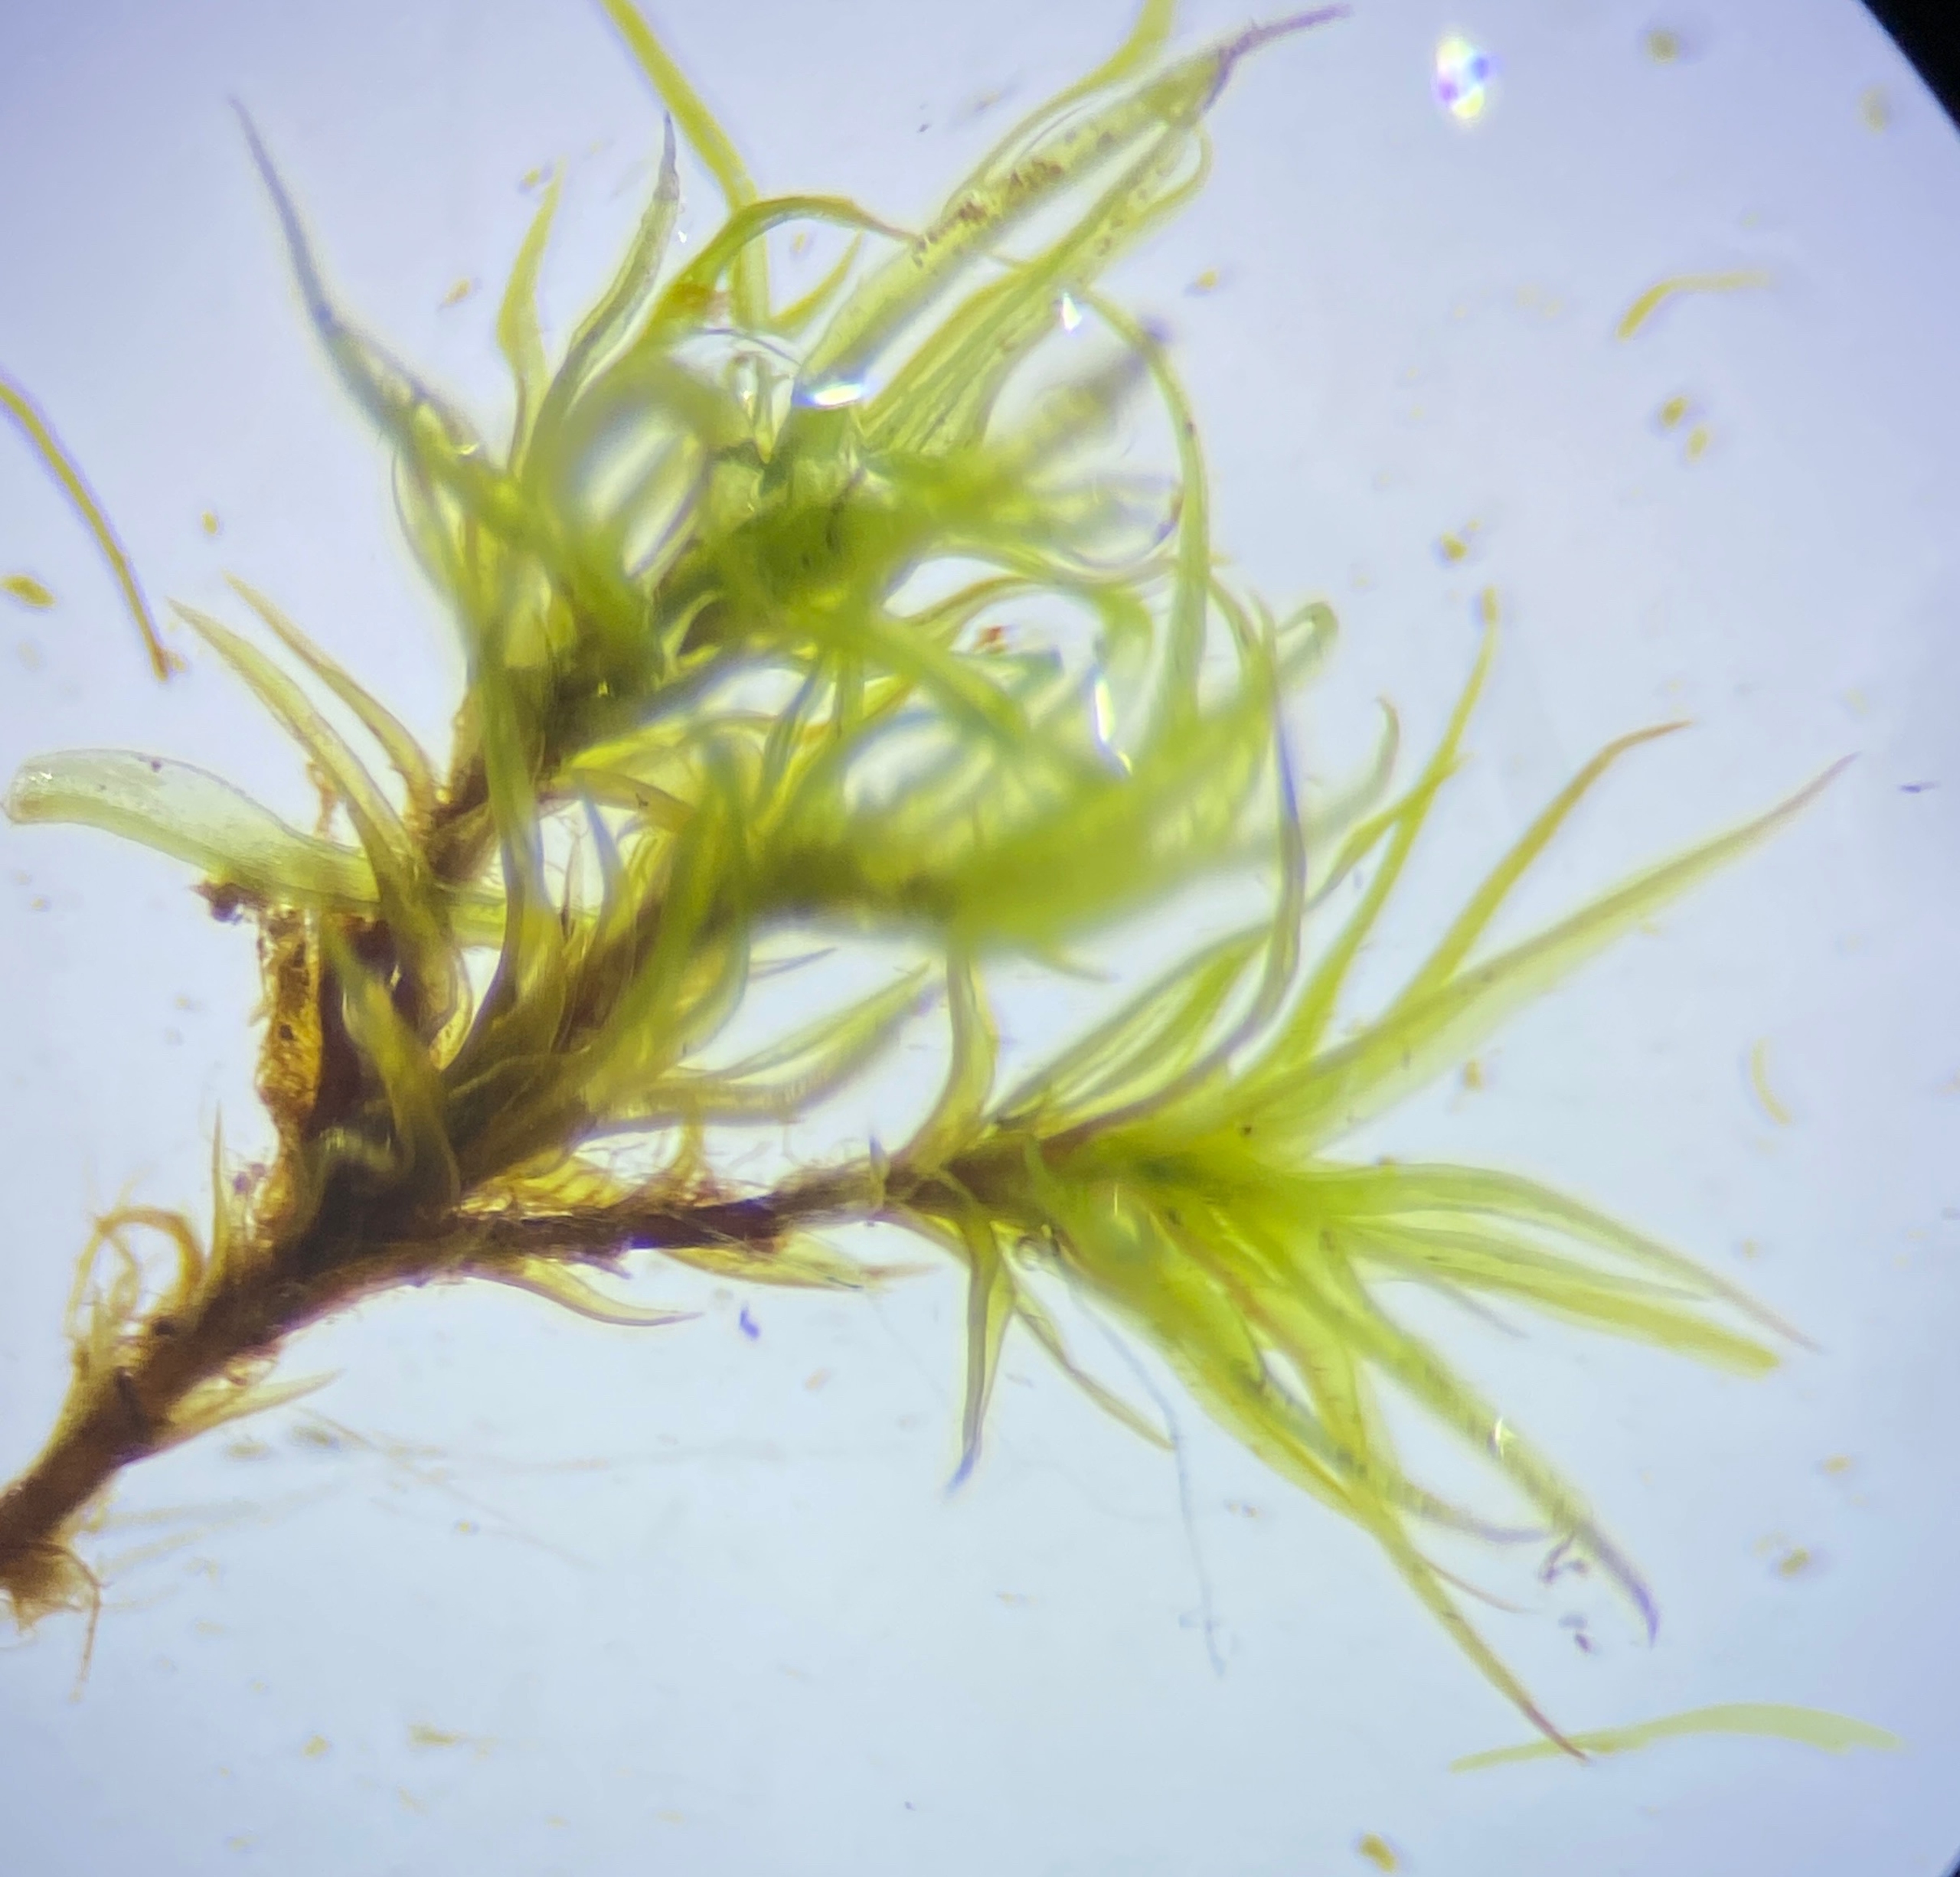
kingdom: Plantae
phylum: Bryophyta
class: Bryopsida
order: Dicranales
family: Ditrichaceae
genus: Ceratodon
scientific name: Ceratodon purpureus
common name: Rød horntand
